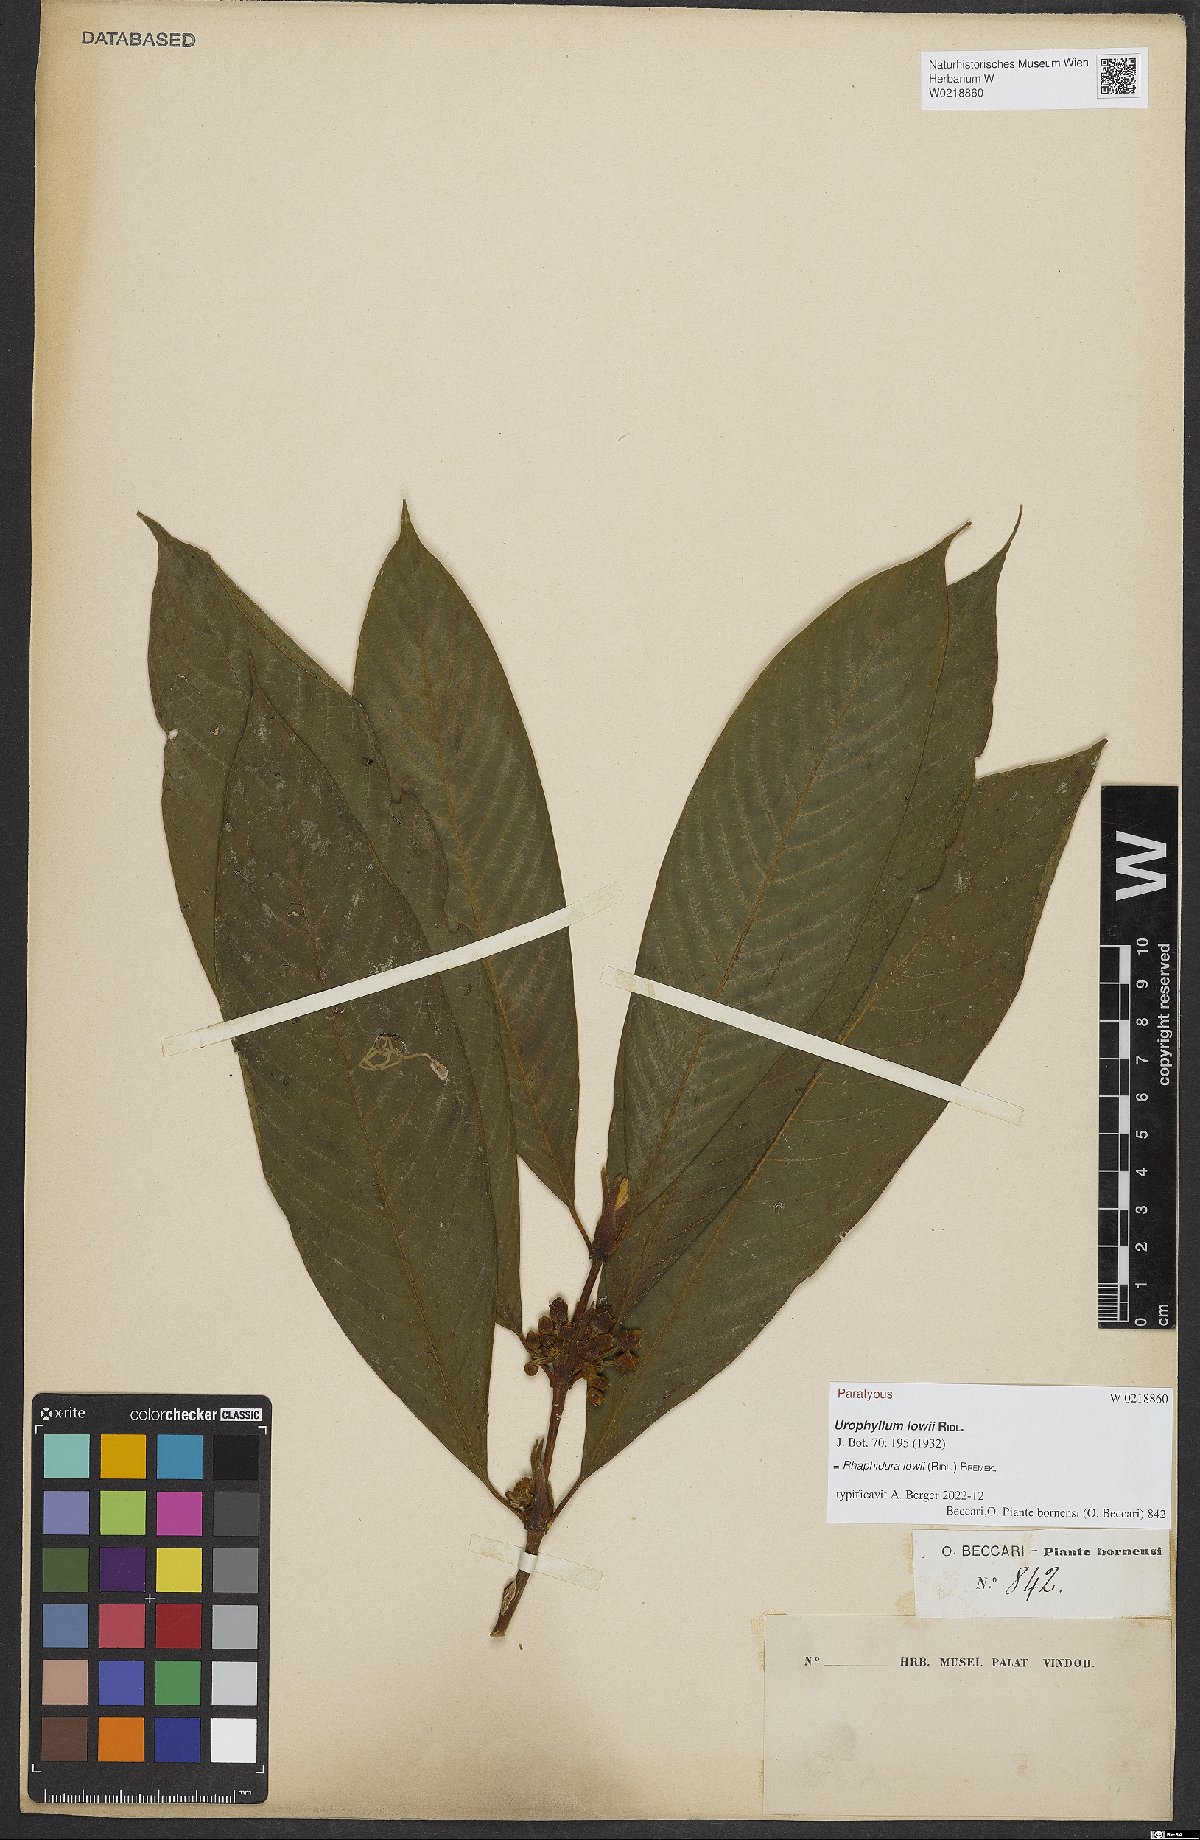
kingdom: Plantae
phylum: Tracheophyta
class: Magnoliopsida
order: Gentianales
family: Rubiaceae
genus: Rhaphidura
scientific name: Rhaphidura lowii
